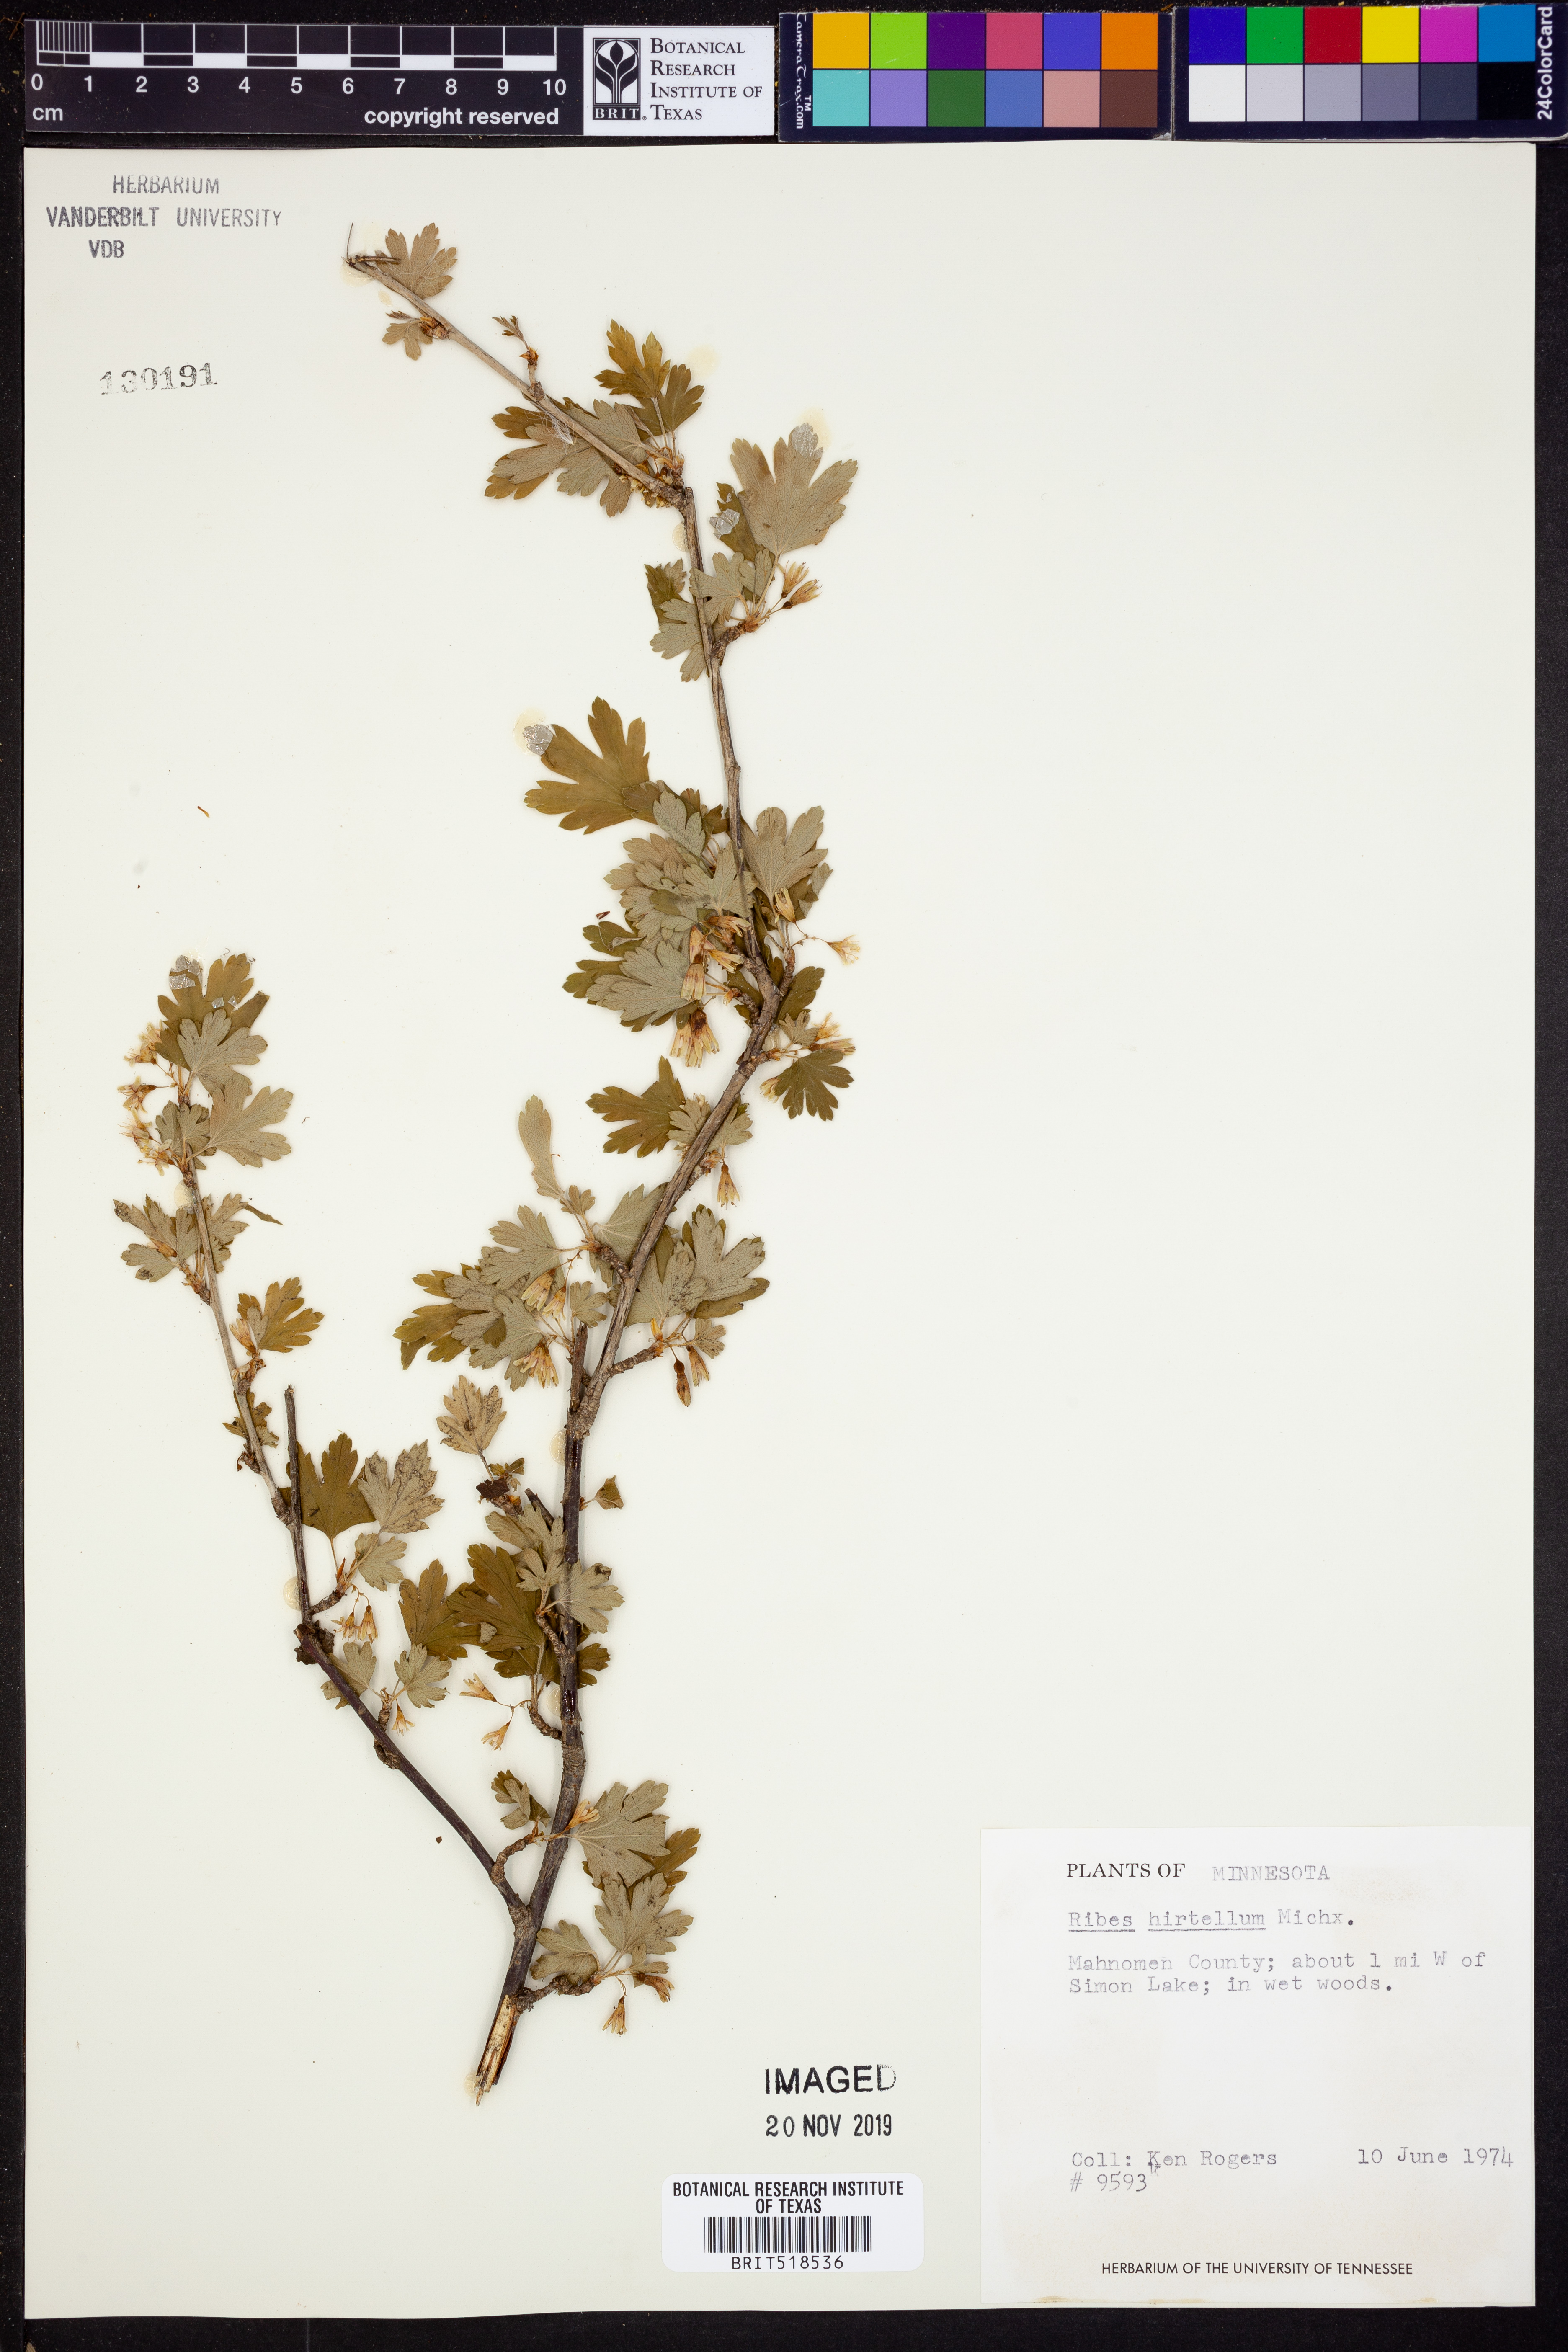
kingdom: Plantae
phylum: Tracheophyta
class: Magnoliopsida
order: Saxifragales
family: Grossulariaceae
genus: Ribes
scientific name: Ribes hirtellum
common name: Hairy gooseberry
